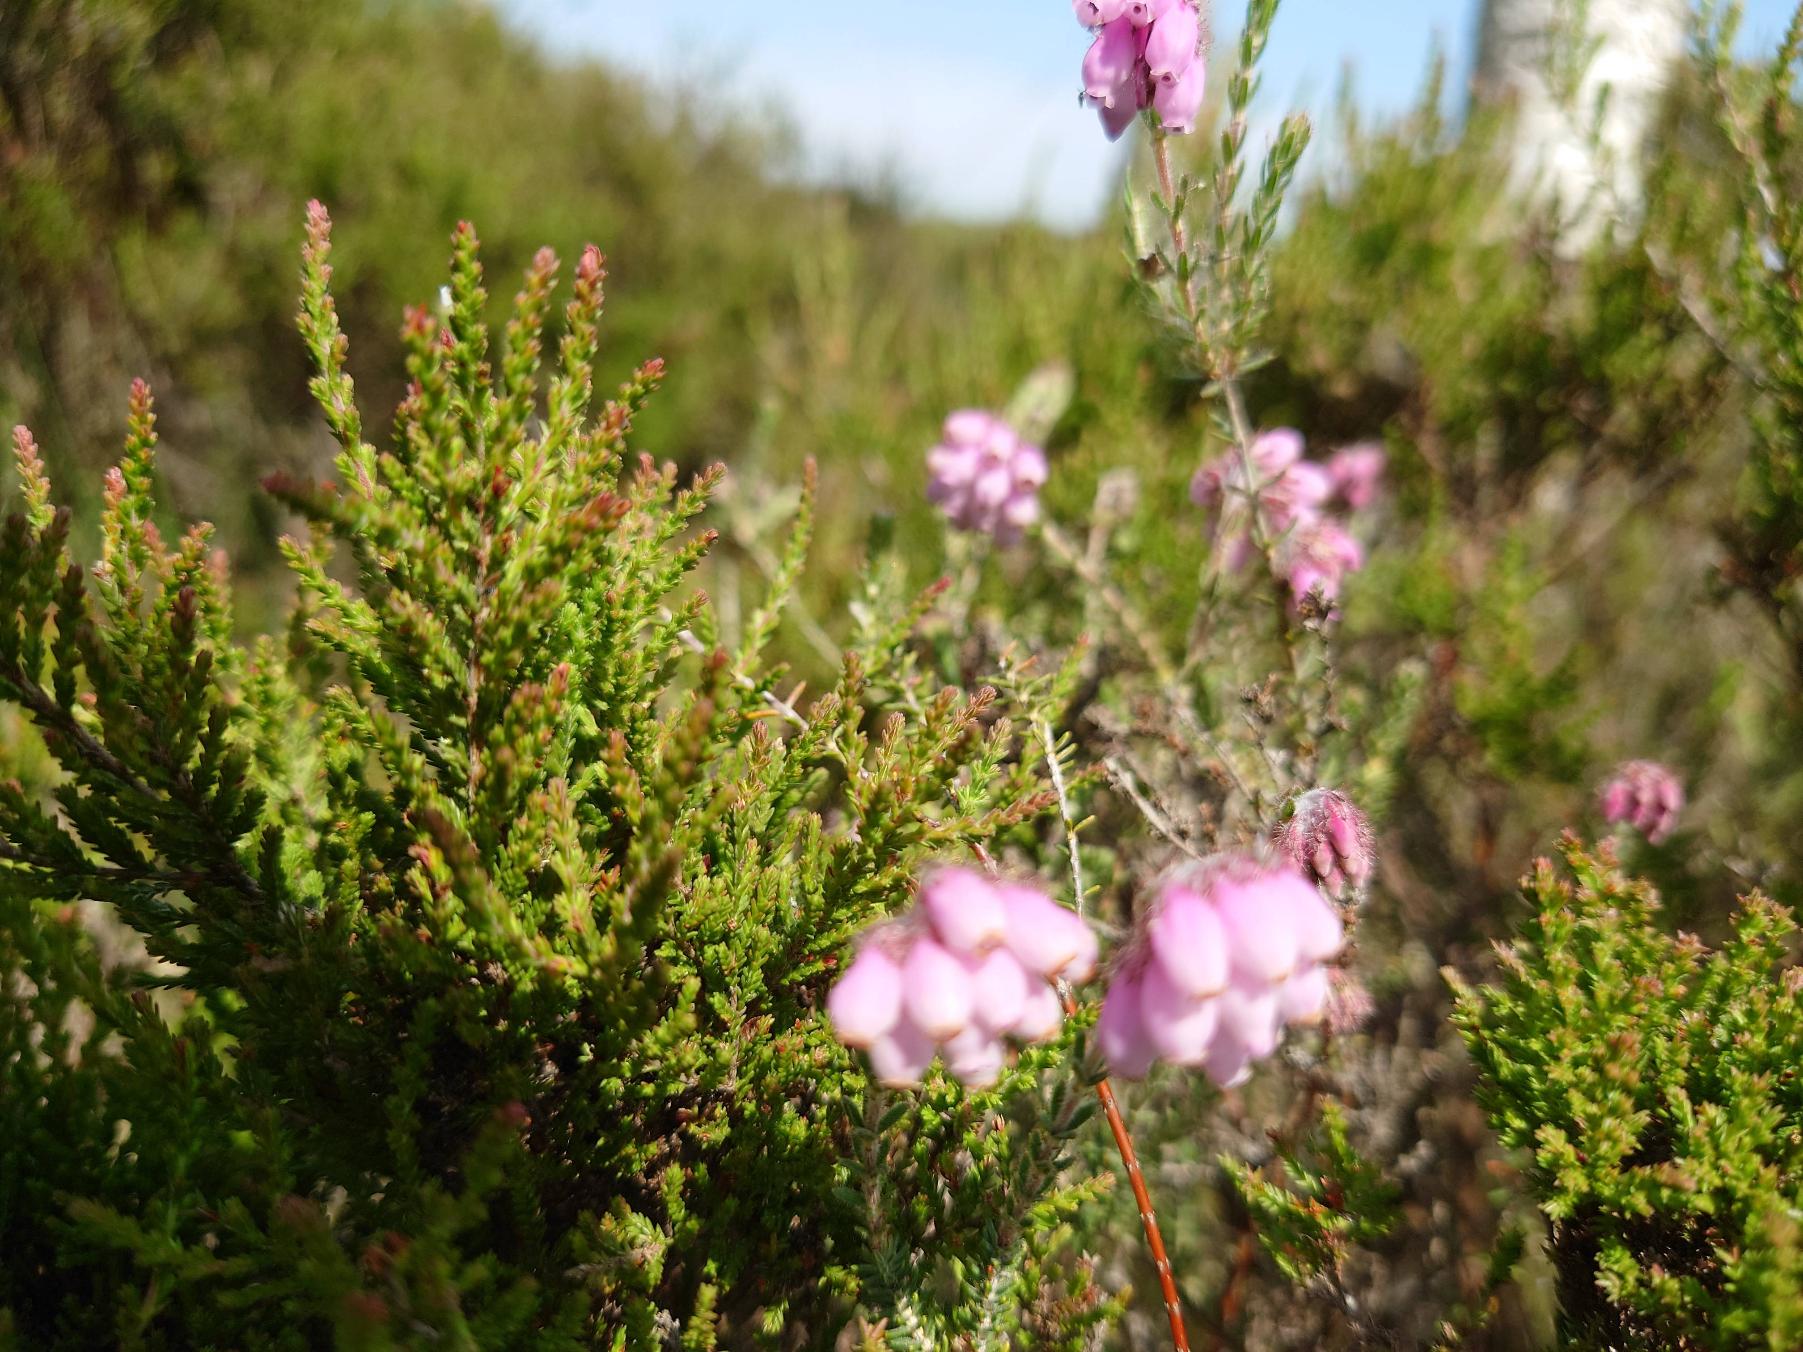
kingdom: Plantae
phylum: Tracheophyta
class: Magnoliopsida
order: Ericales
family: Ericaceae
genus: Erica
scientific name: Erica tetralix
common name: Klokkelyng
